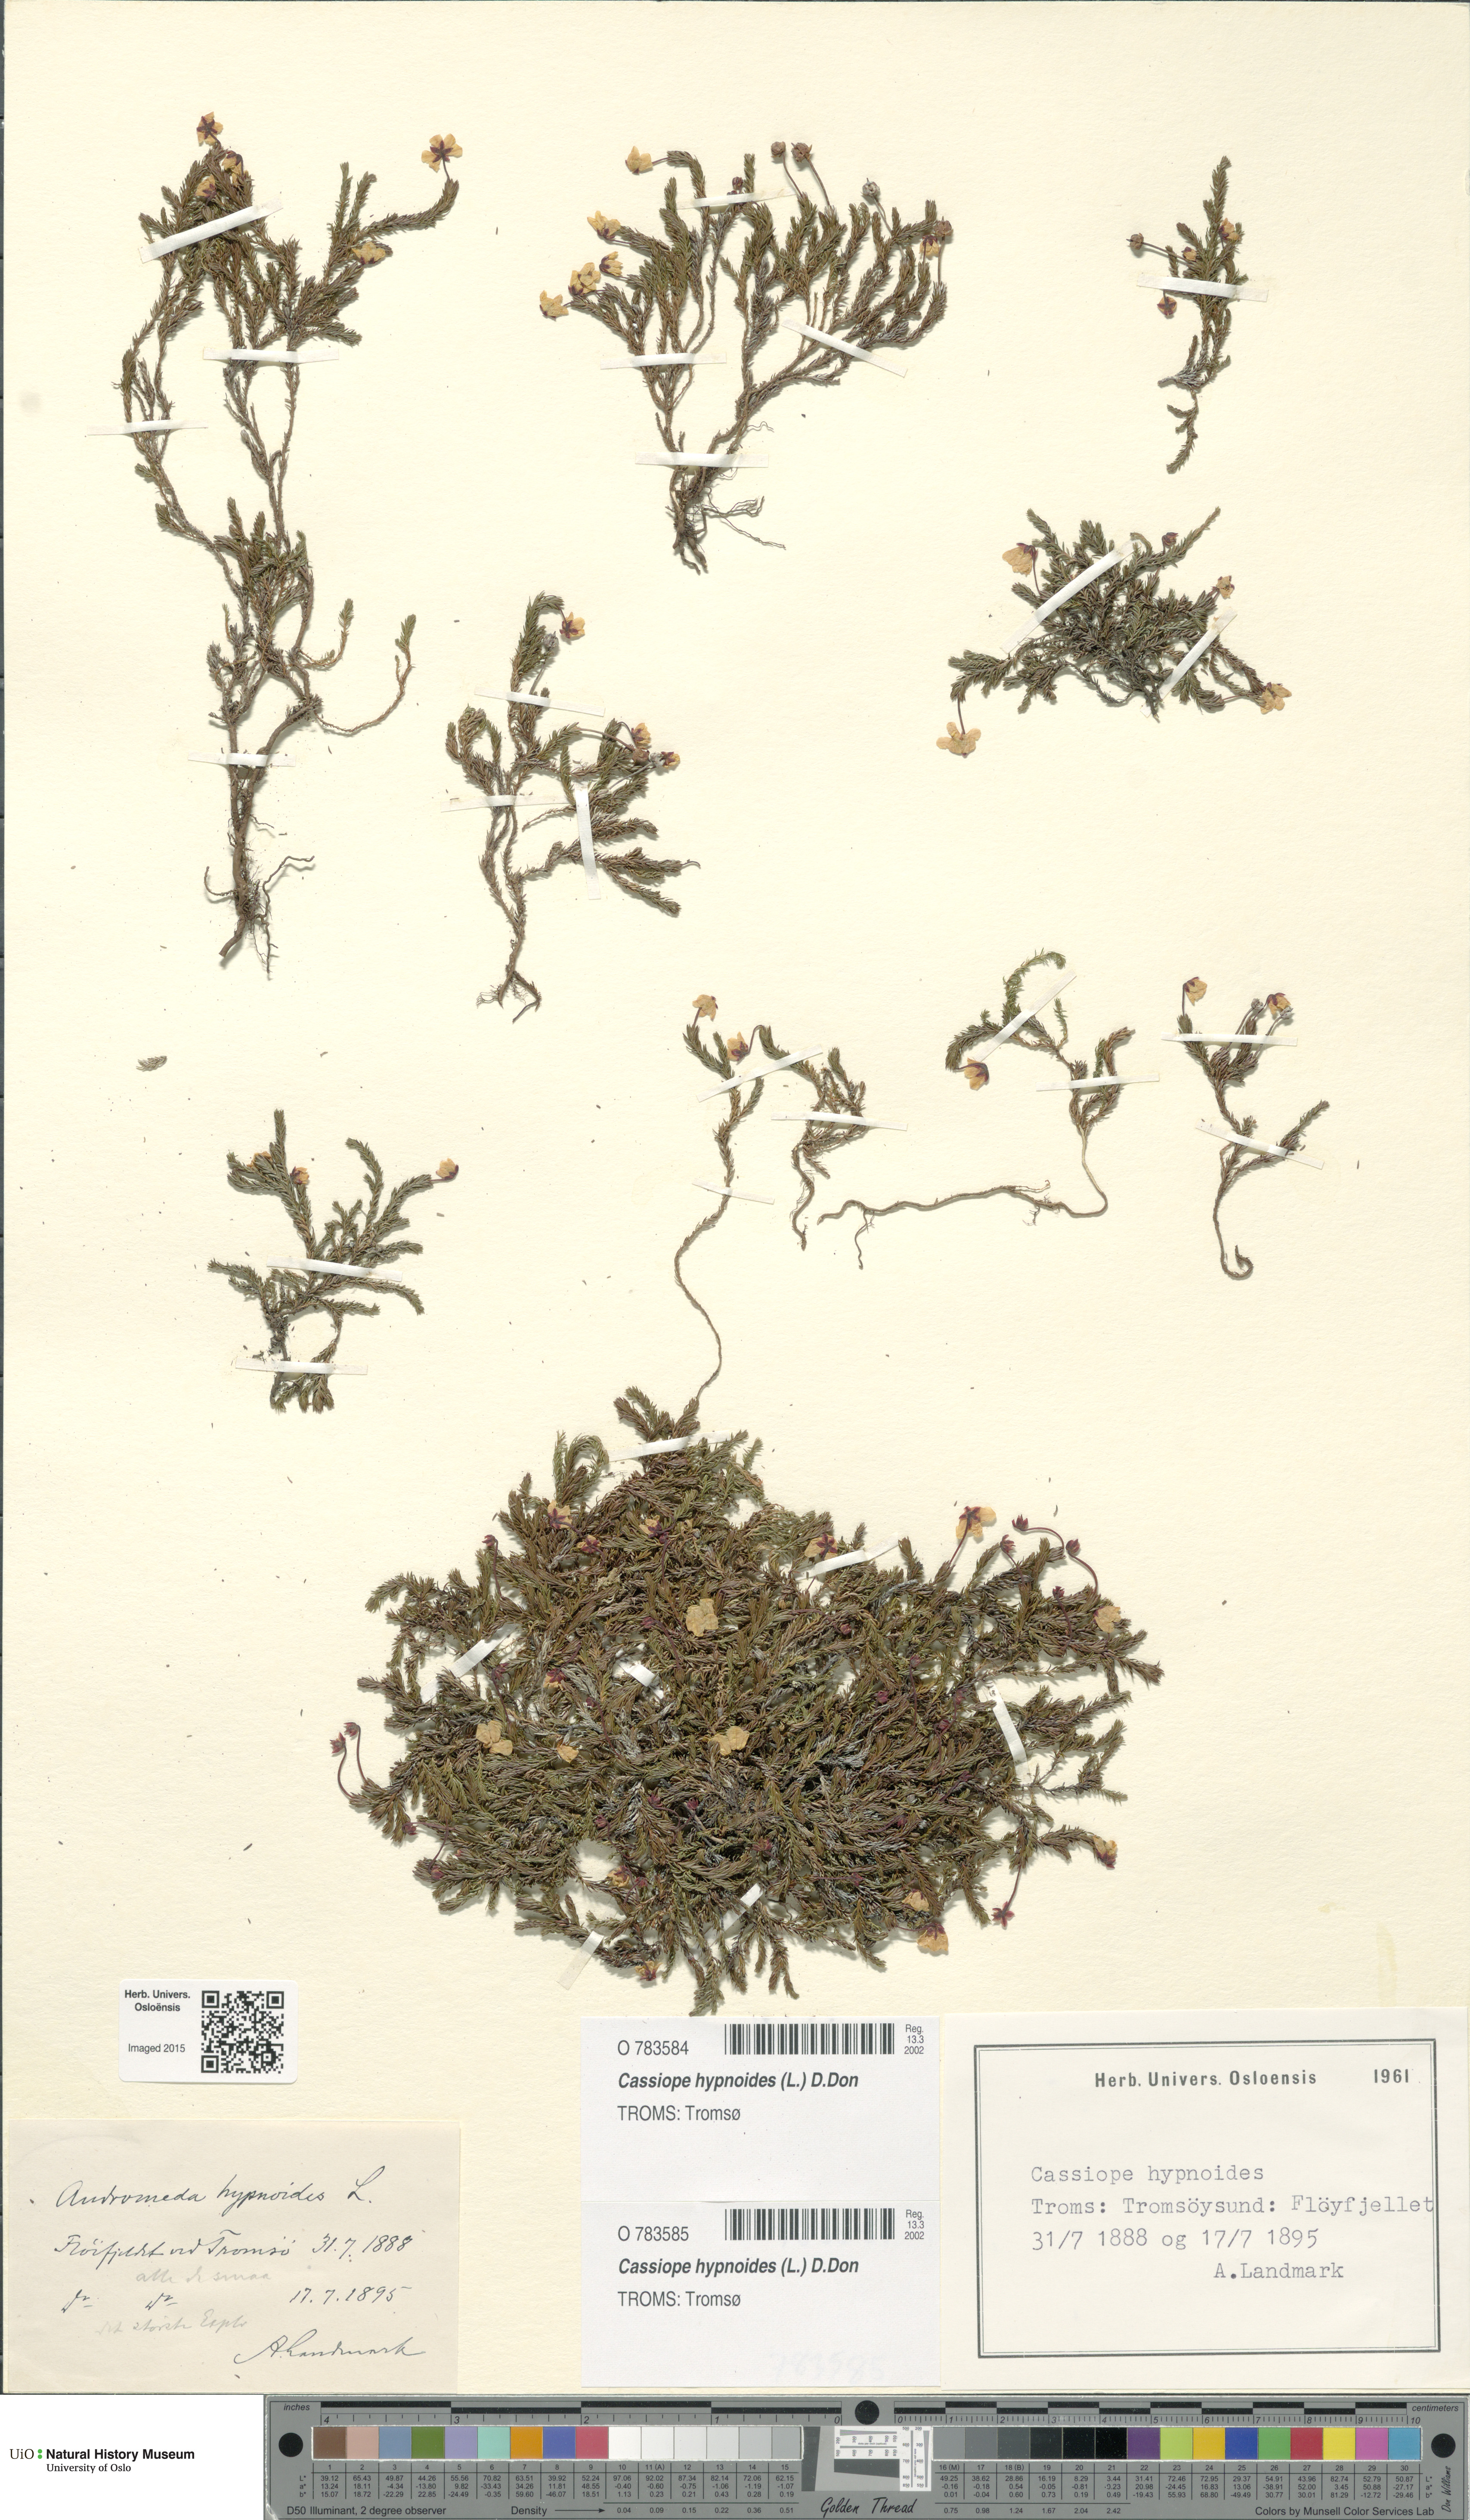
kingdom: Plantae
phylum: Tracheophyta
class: Magnoliopsida
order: Ericales
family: Ericaceae
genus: Harrimanella
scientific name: Harrimanella hypnoides
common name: Moss bell heather
